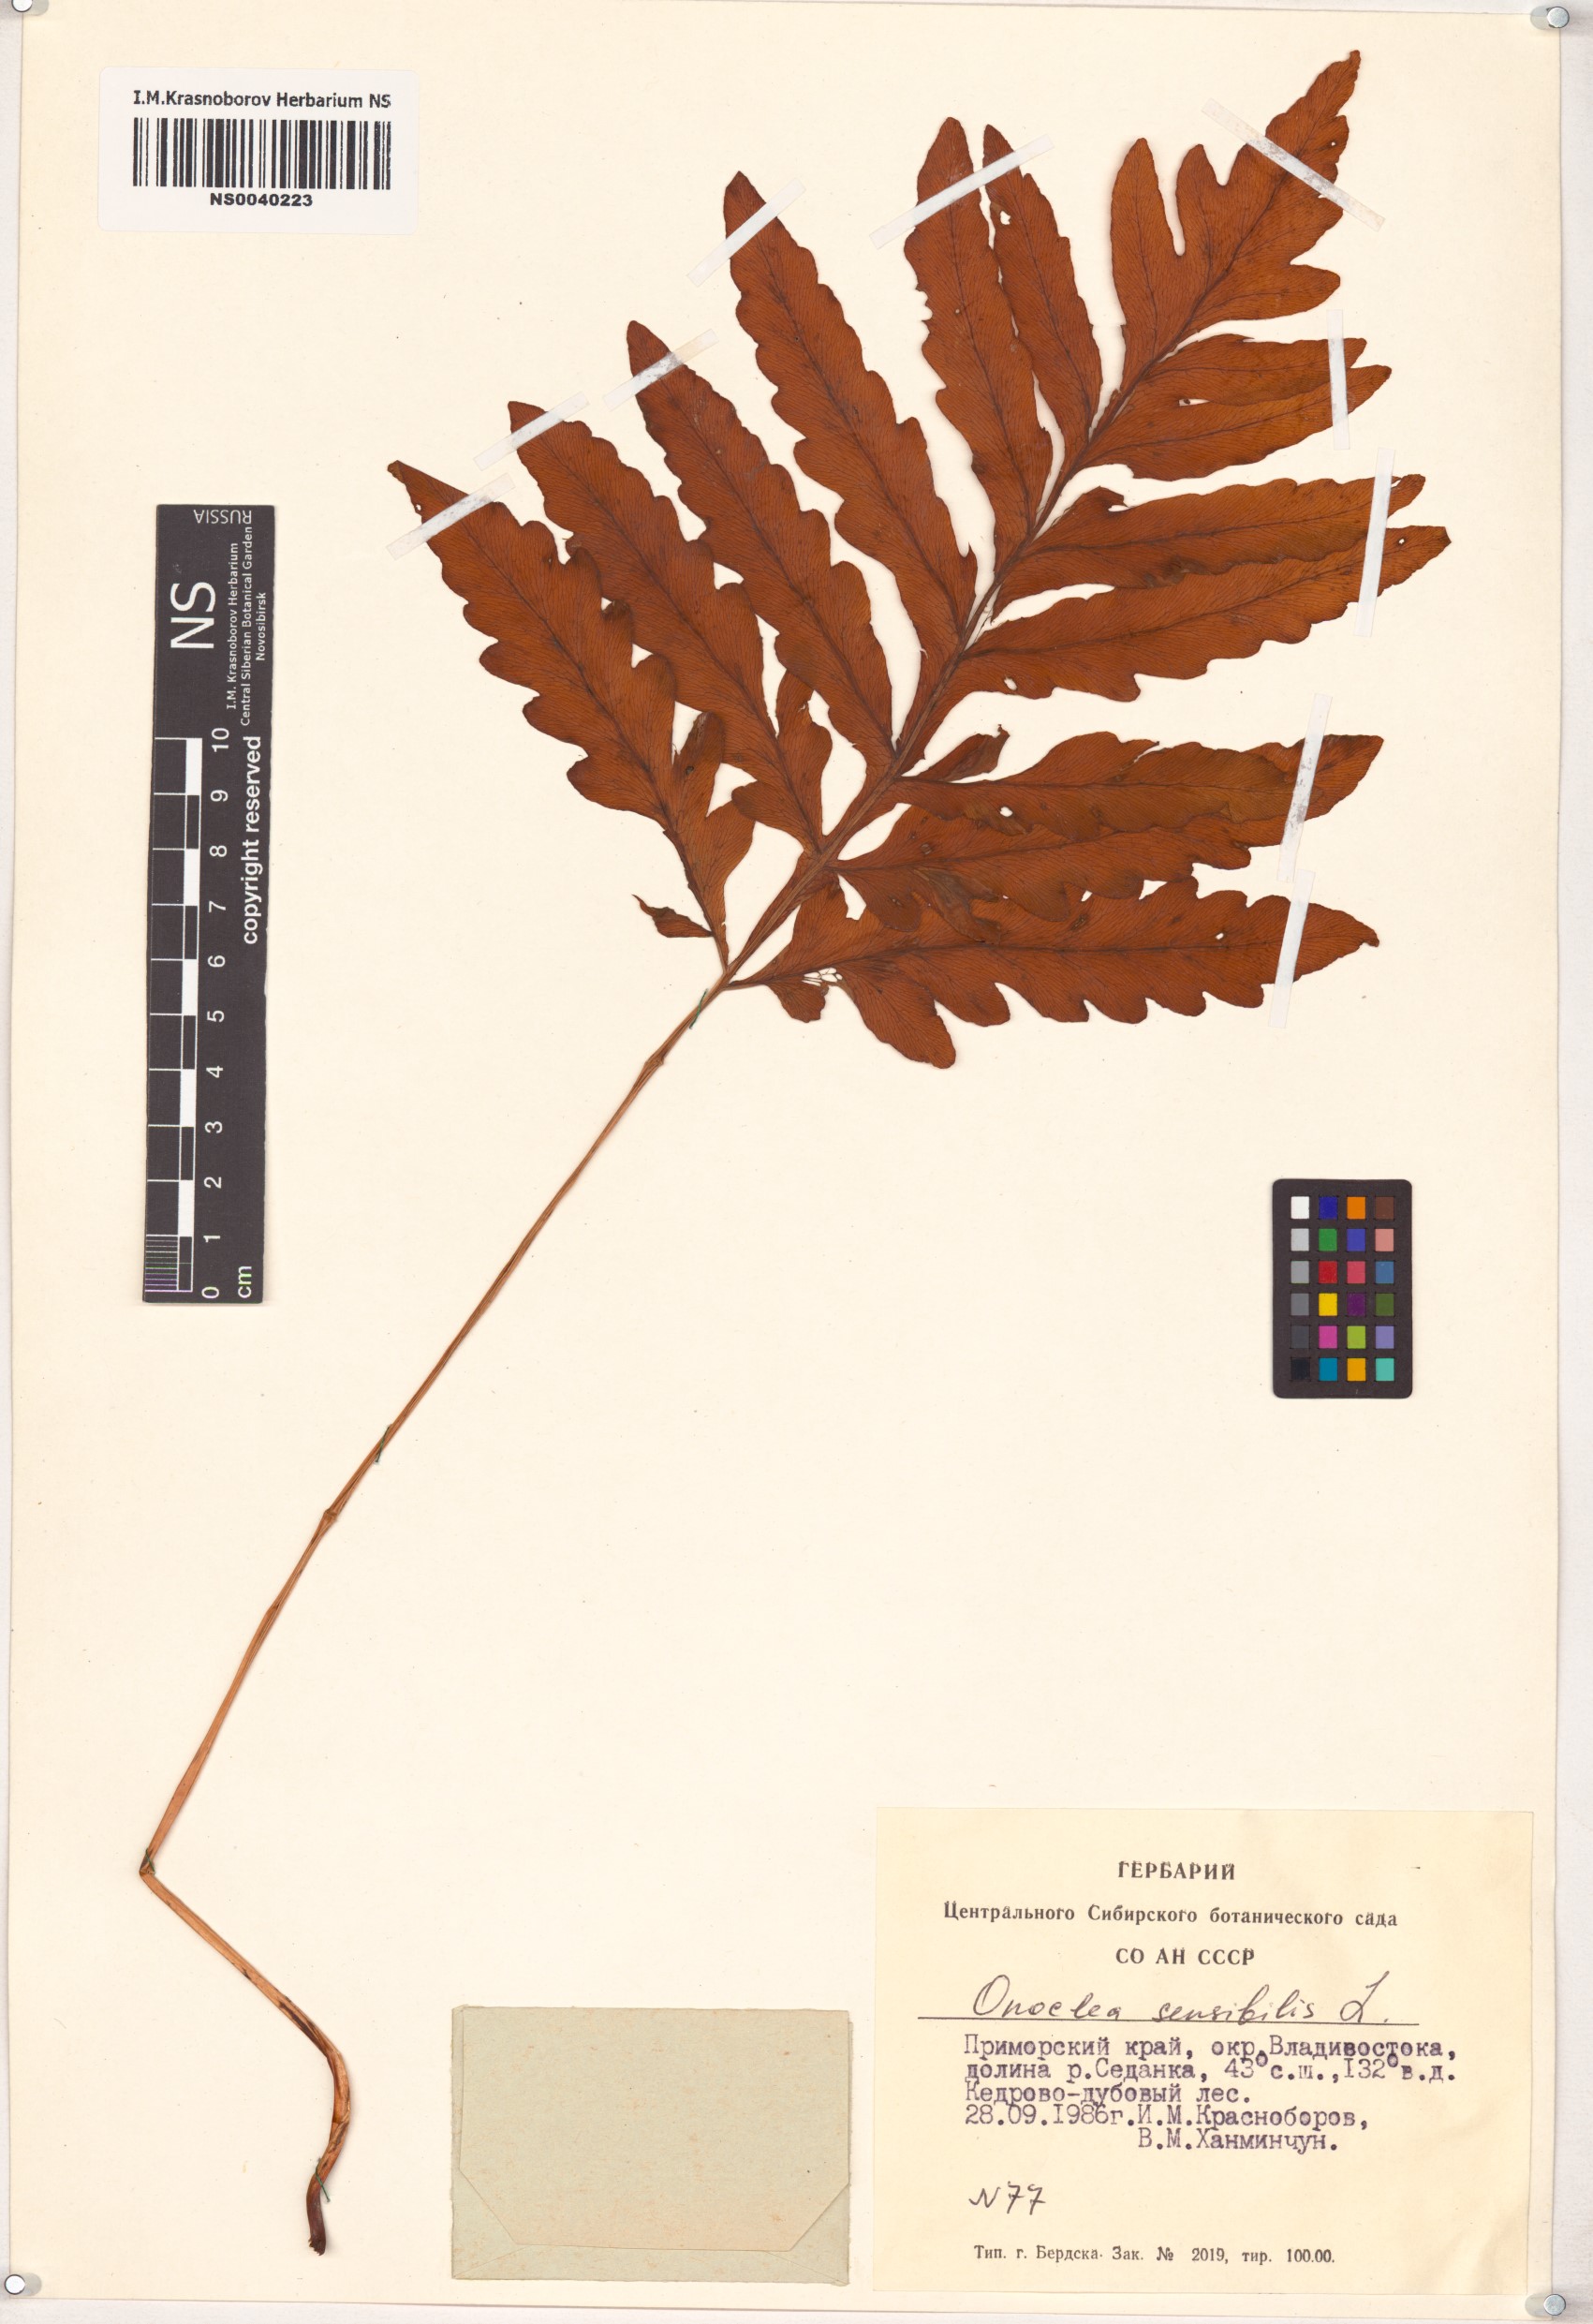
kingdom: Plantae
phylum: Tracheophyta
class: Polypodiopsida
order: Polypodiales
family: Onocleaceae
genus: Onoclea
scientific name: Onoclea sensibilis
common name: Sensitive fern
